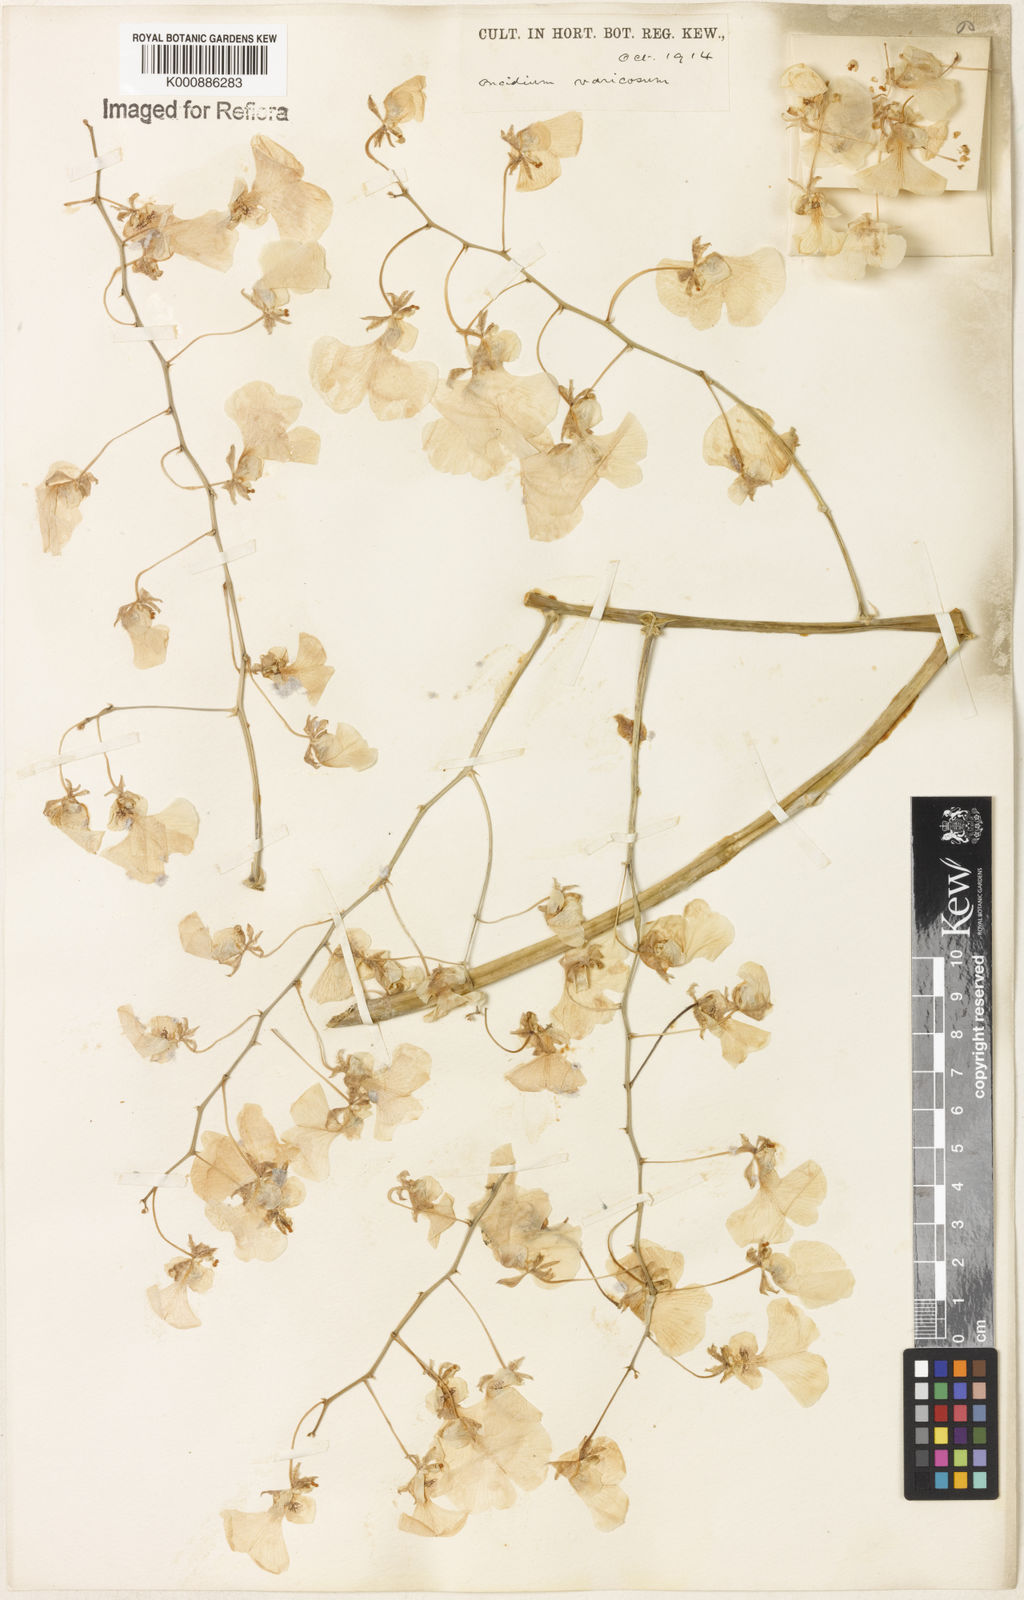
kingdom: Plantae
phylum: Tracheophyta
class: Liliopsida
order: Asparagales
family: Orchidaceae
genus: Gomesa
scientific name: Gomesa varicosa
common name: Dancing ladies
